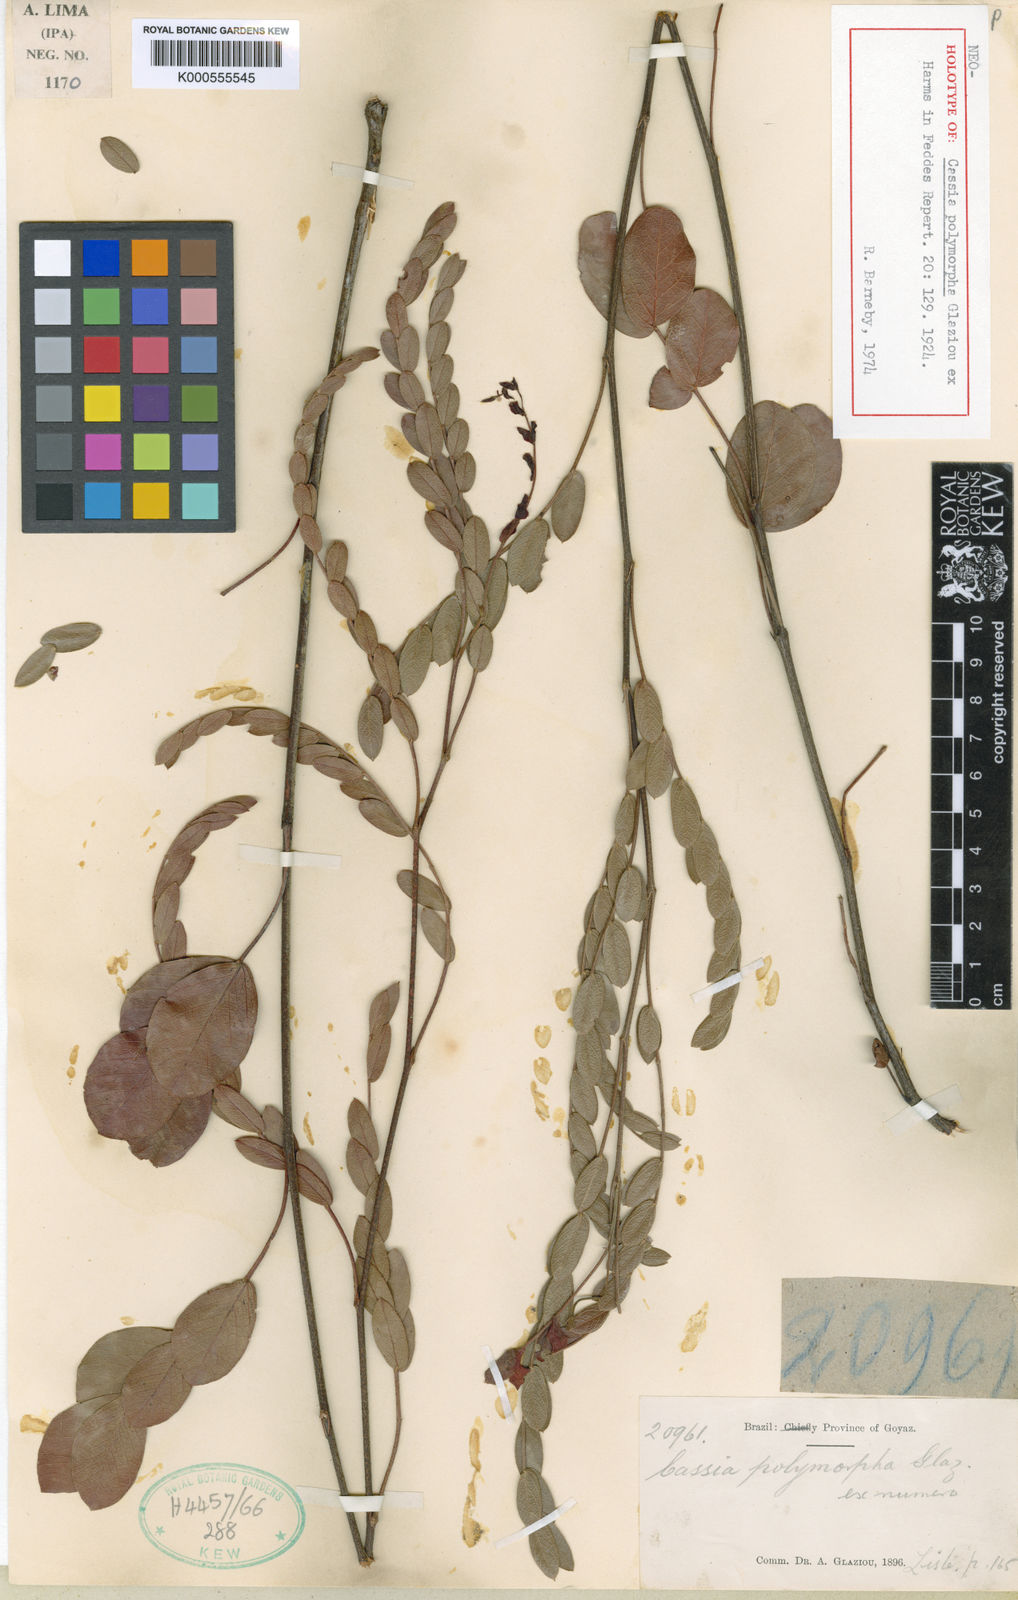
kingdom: Plantae
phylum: Tracheophyta
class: Magnoliopsida
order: Fabales
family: Fabaceae
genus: Chamaecrista
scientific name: Chamaecrista polymorpha
